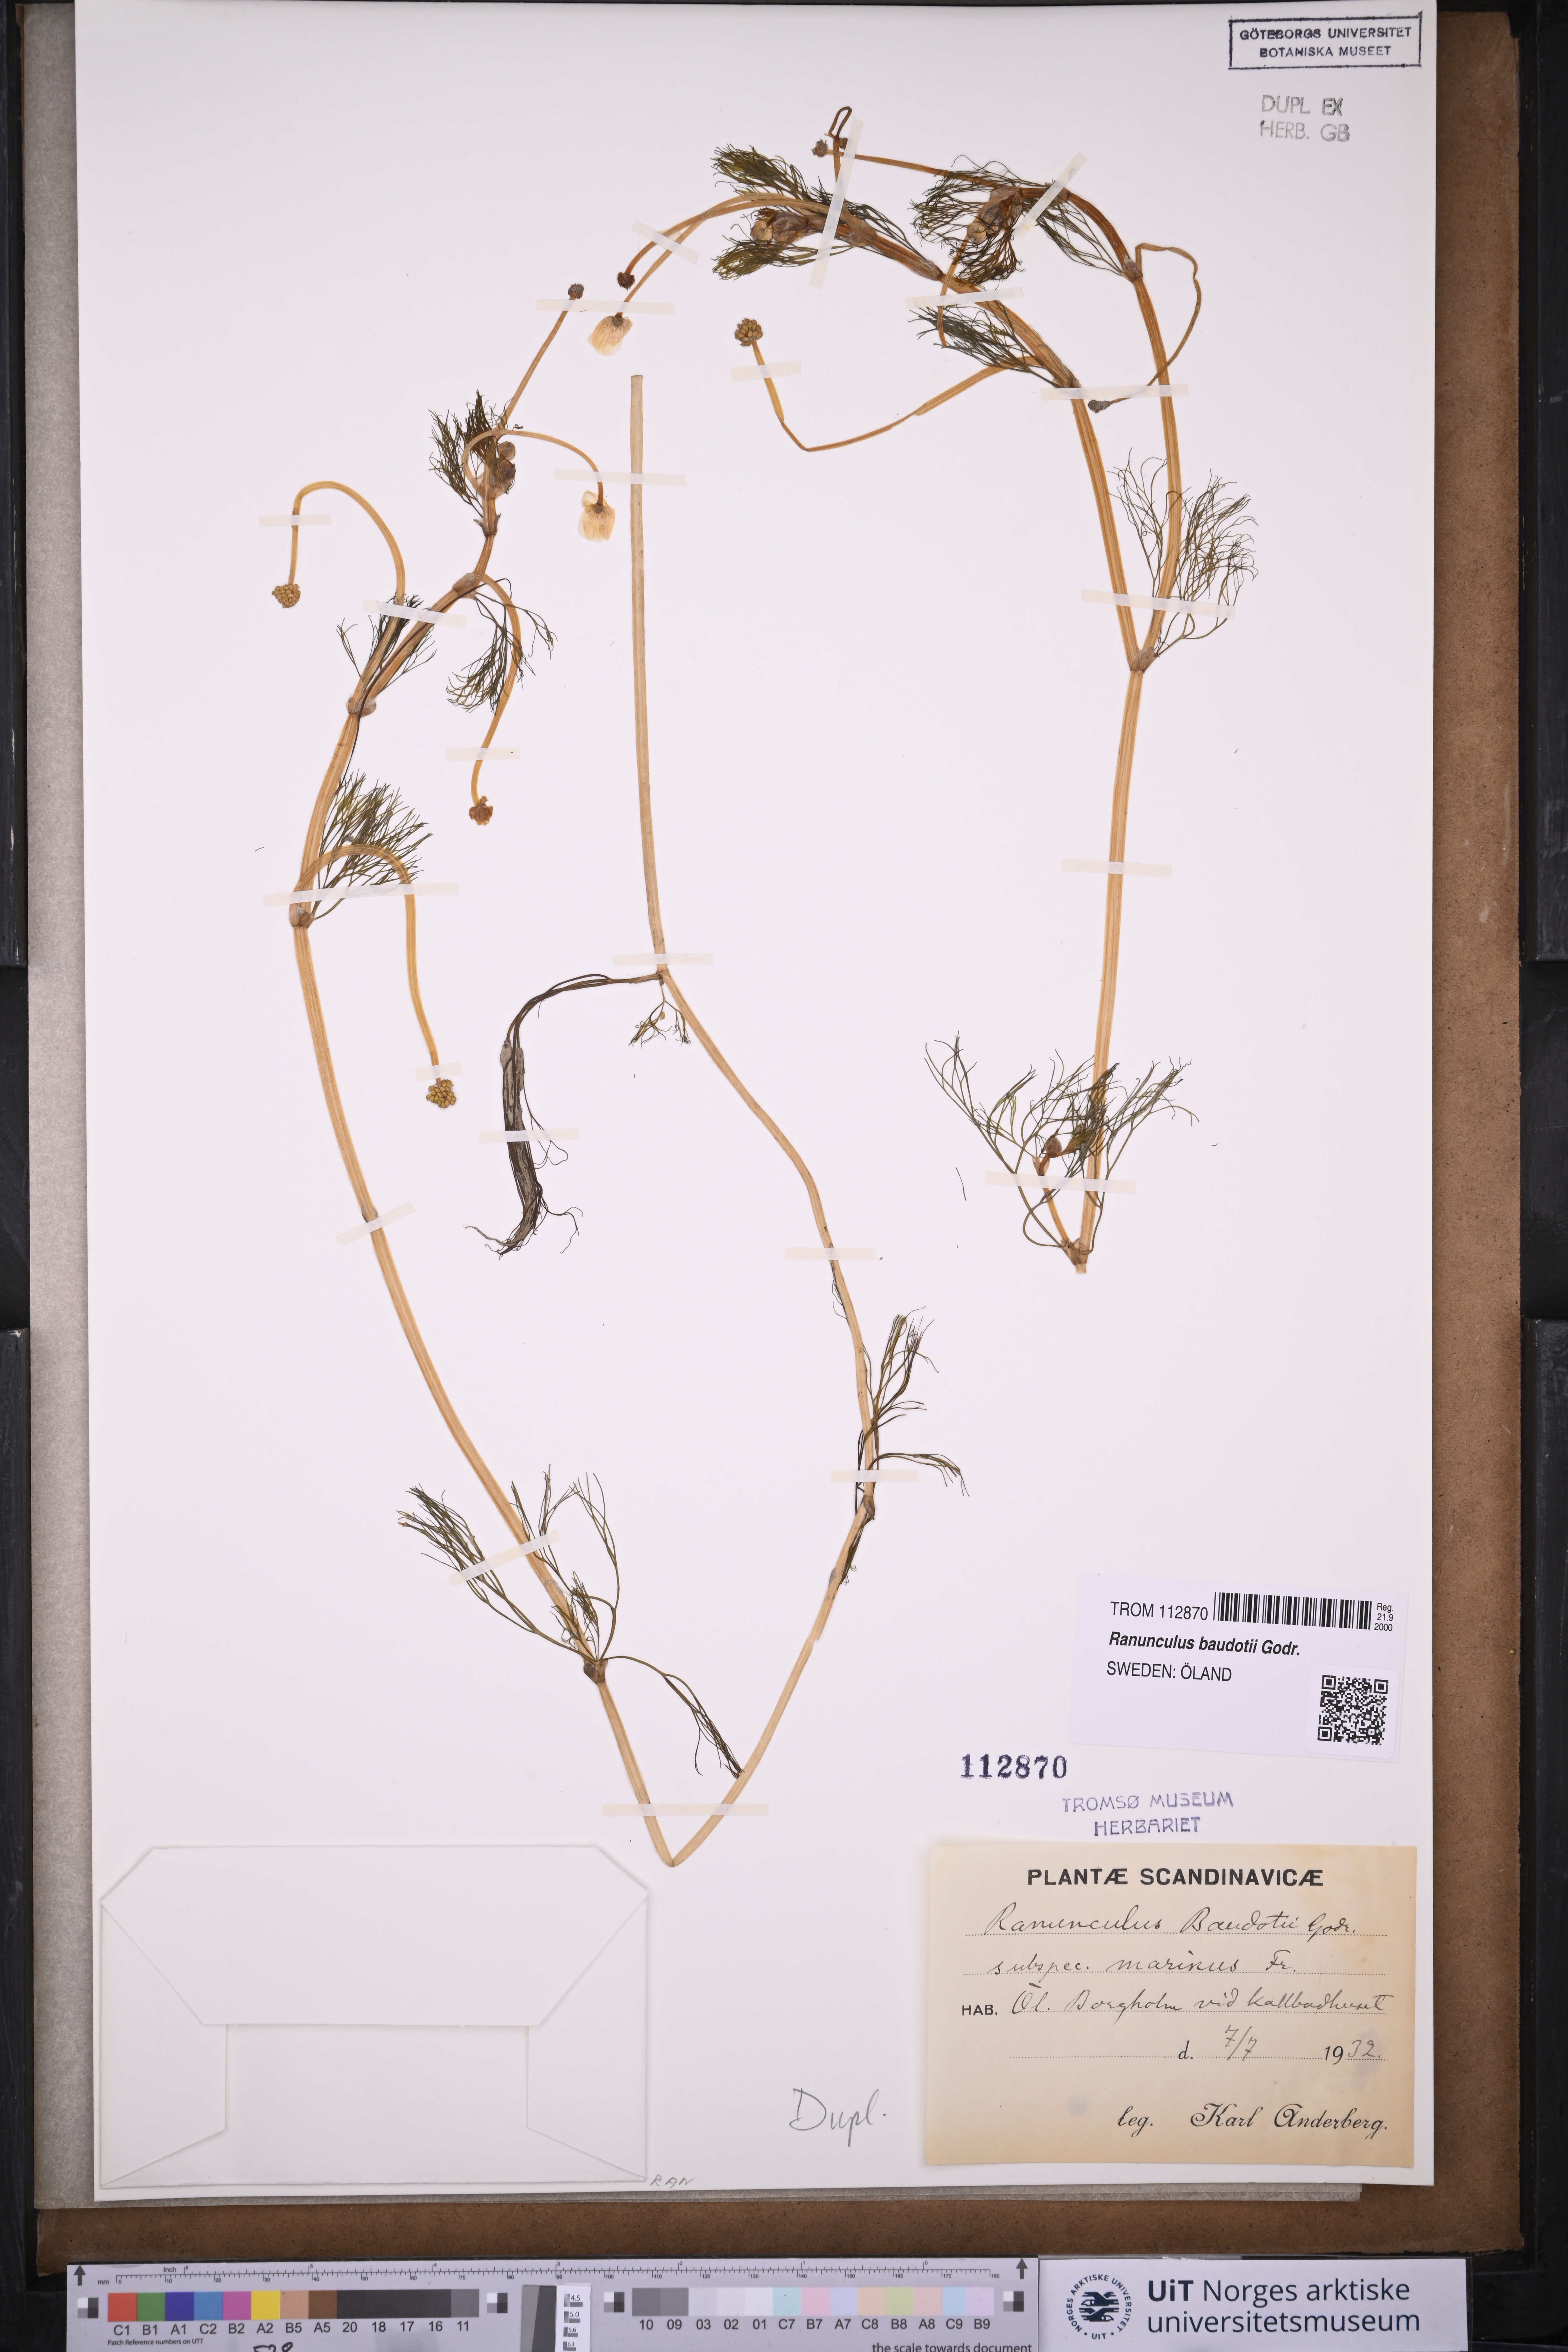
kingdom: Plantae
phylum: Tracheophyta
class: Magnoliopsida
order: Ranunculales
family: Ranunculaceae
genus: Ranunculus
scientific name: Ranunculus peltatus
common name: Pond water-crowfoot
